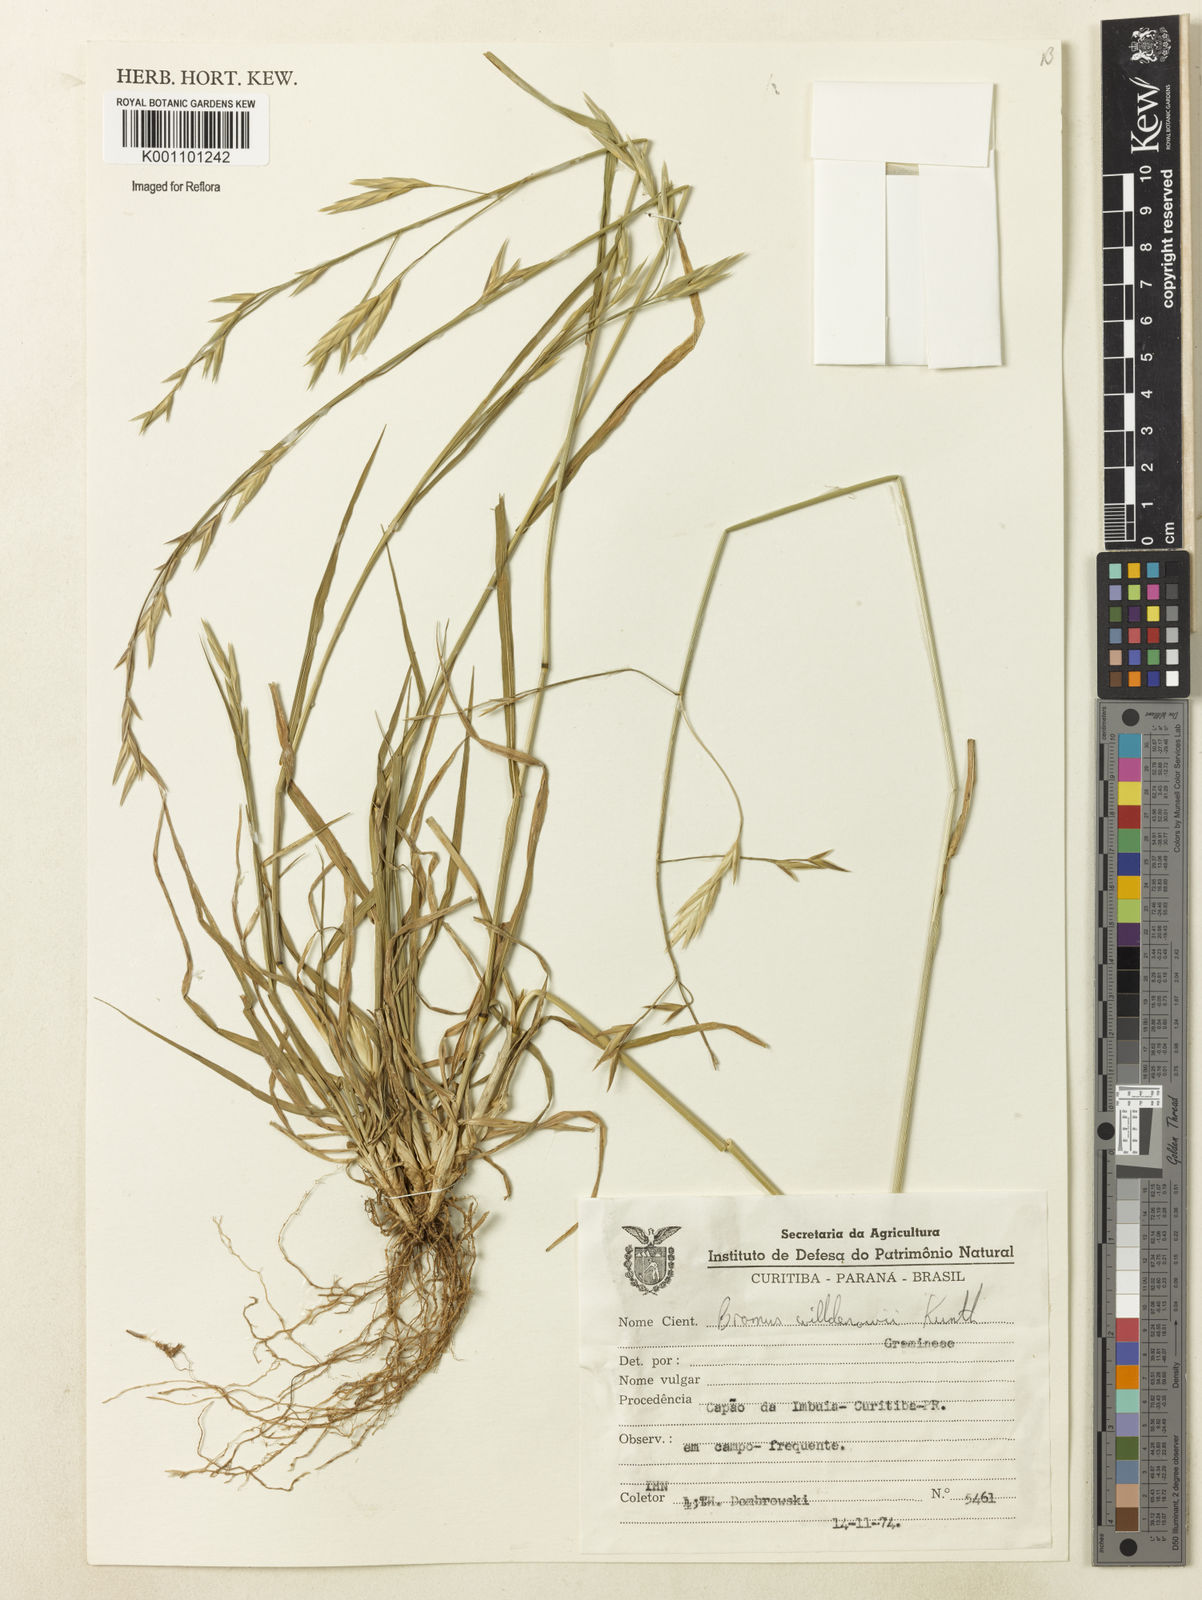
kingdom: Plantae
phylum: Tracheophyta
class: Liliopsida
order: Poales
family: Poaceae
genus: Bromus
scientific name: Bromus catharticus
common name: Rescuegrass
